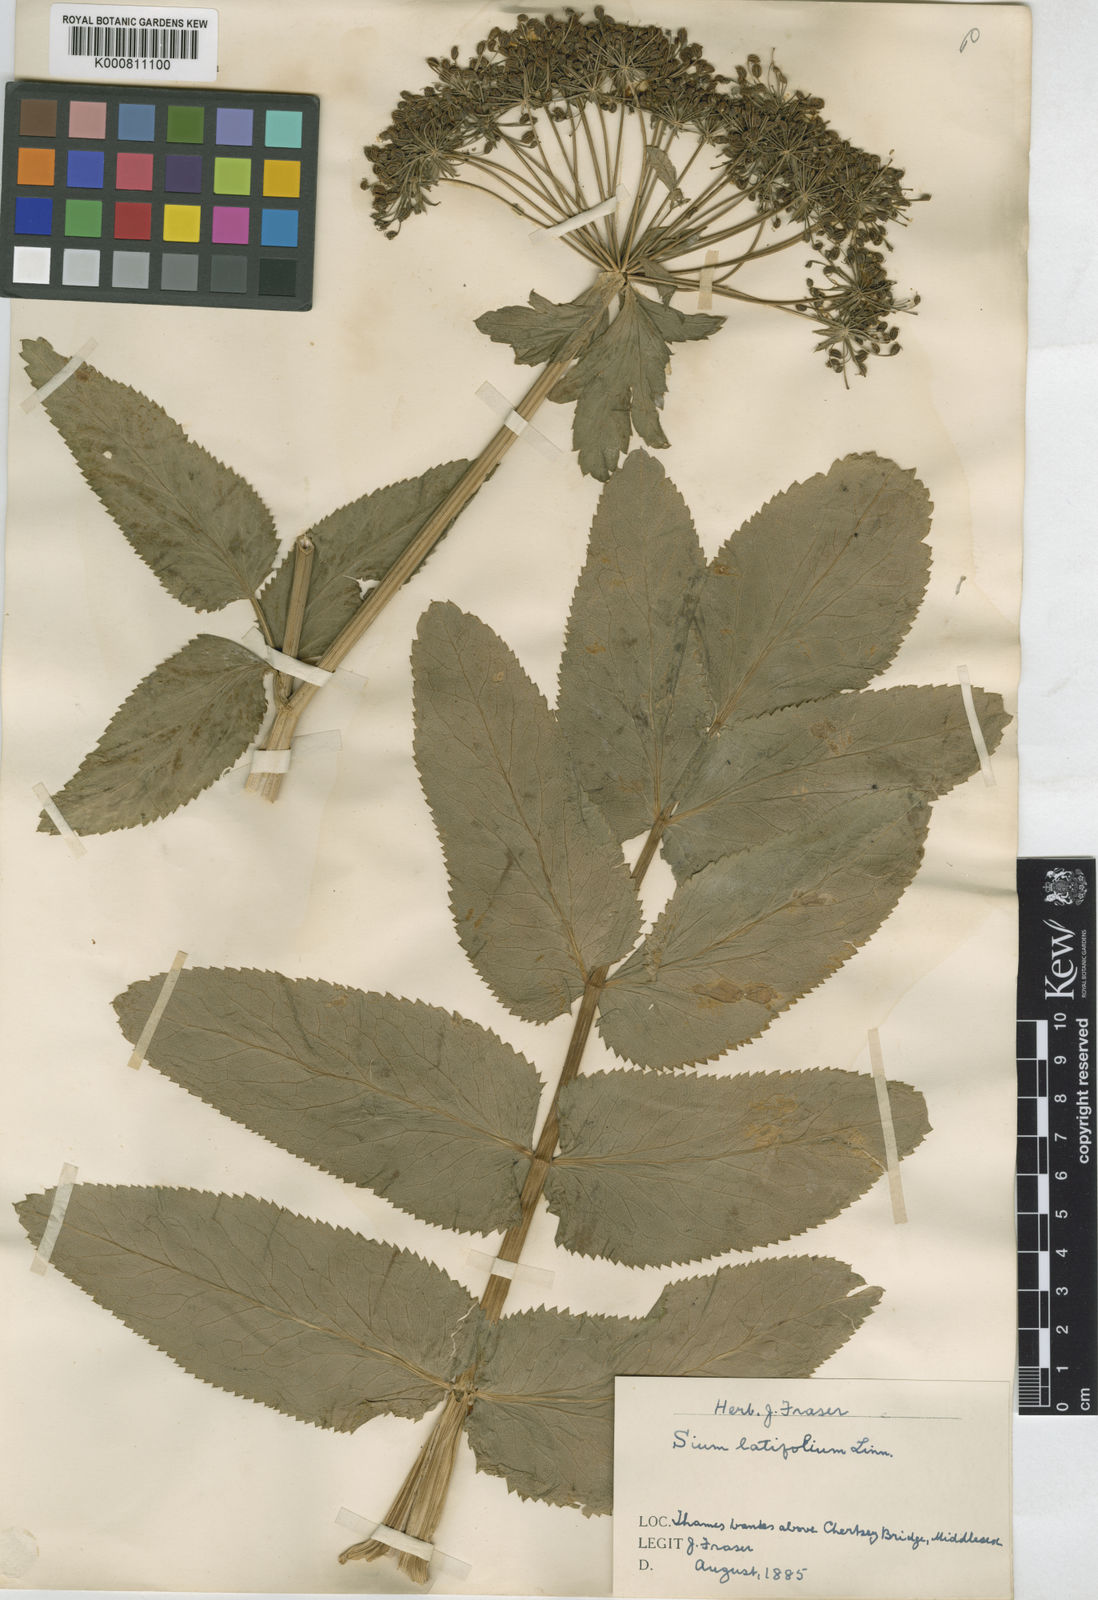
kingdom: Plantae
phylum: Tracheophyta
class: Magnoliopsida
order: Apiales
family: Apiaceae
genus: Sium
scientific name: Sium latifolium
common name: Greater water-parsnip
